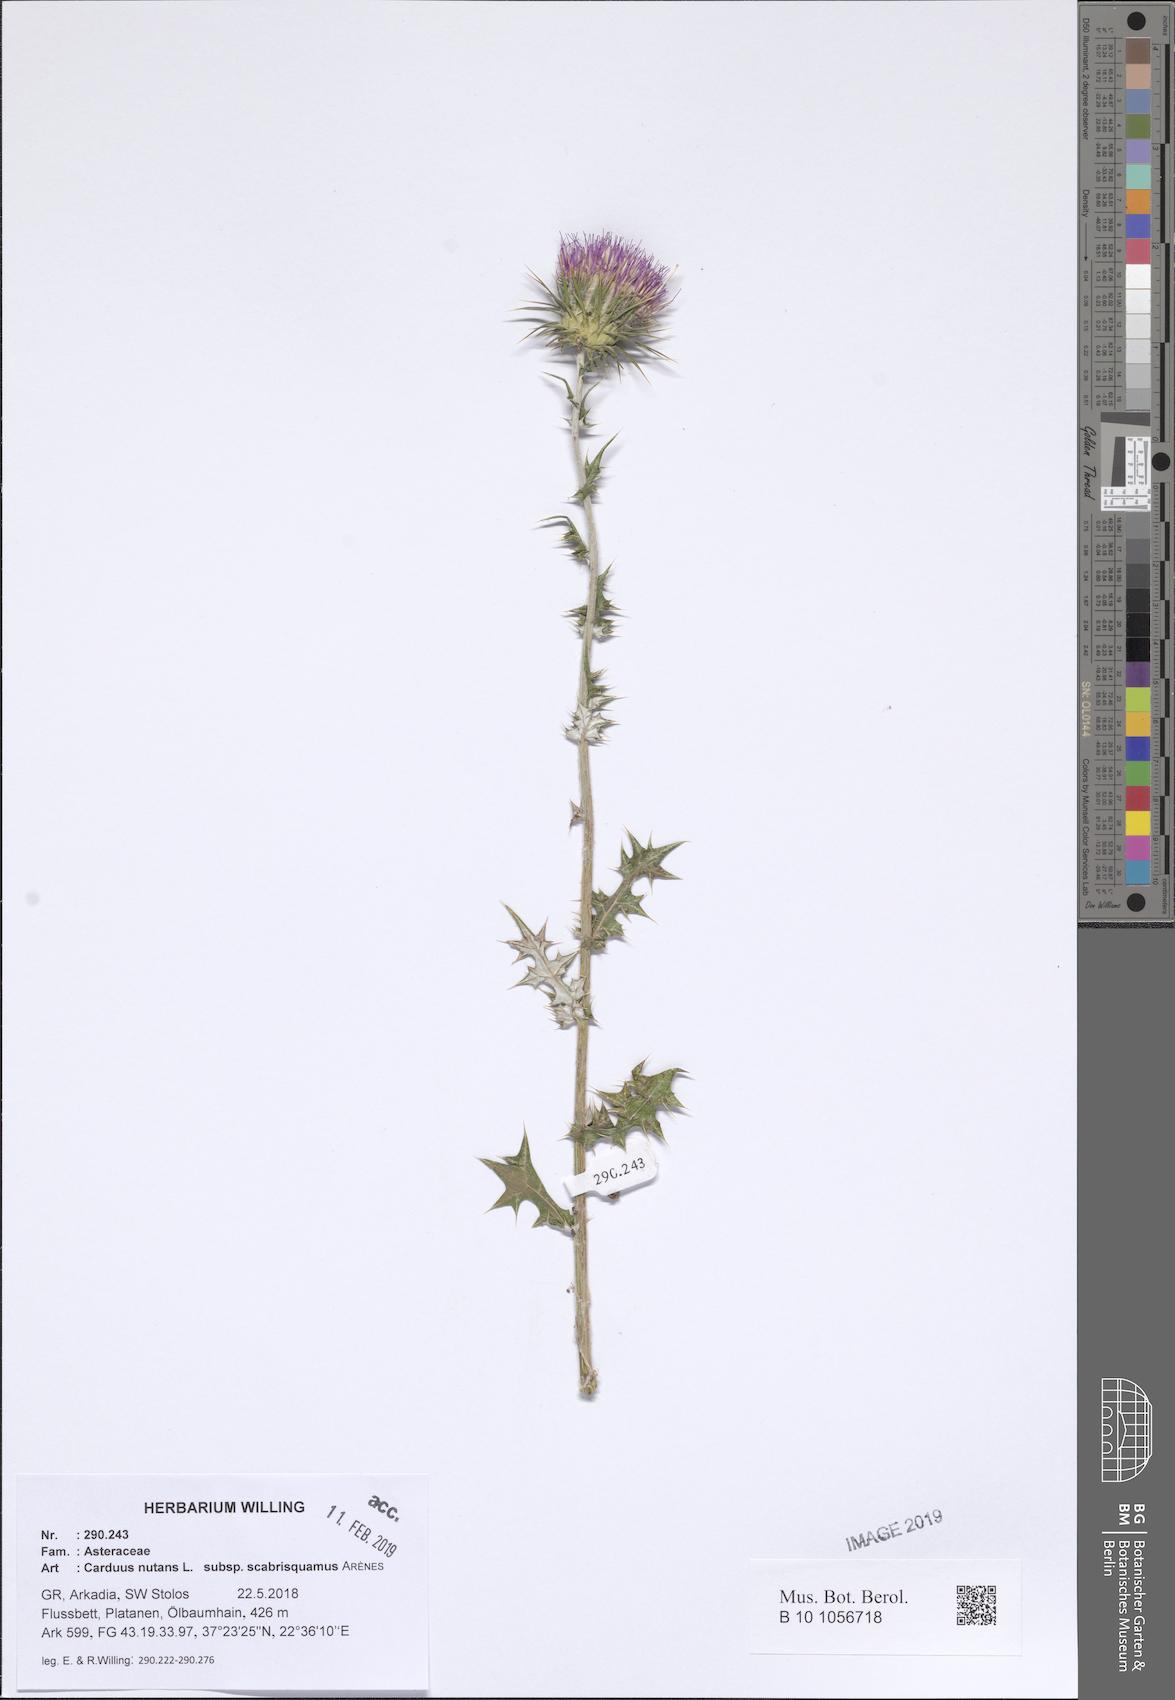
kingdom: Plantae
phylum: Tracheophyta
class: Magnoliopsida
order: Asterales
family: Asteraceae
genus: Carduus
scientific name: Carduus macrocephalus
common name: Giant thistle
